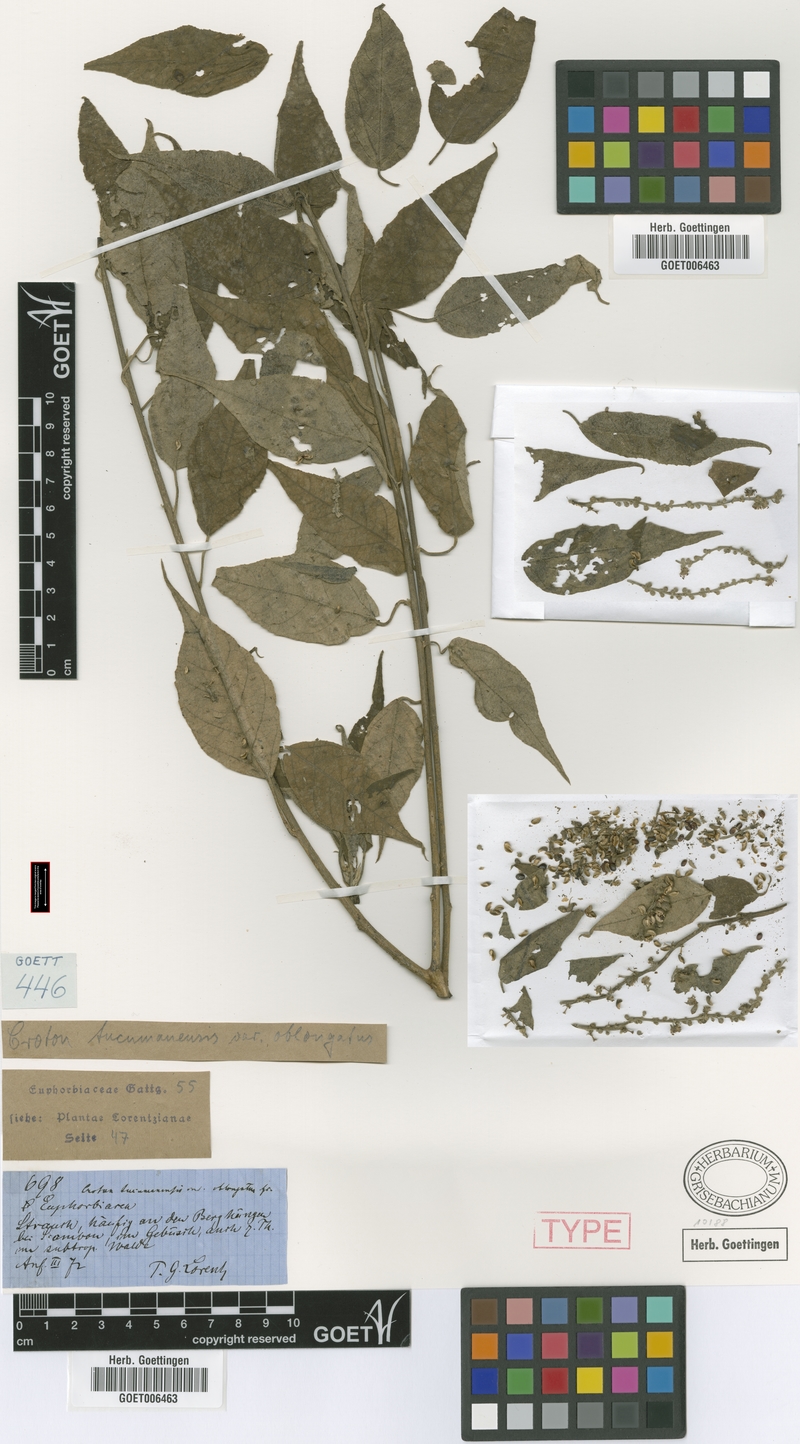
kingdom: Plantae
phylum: Tracheophyta
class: Magnoliopsida
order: Malpighiales
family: Euphorbiaceae
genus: Croton
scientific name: Croton lachnostachyus
